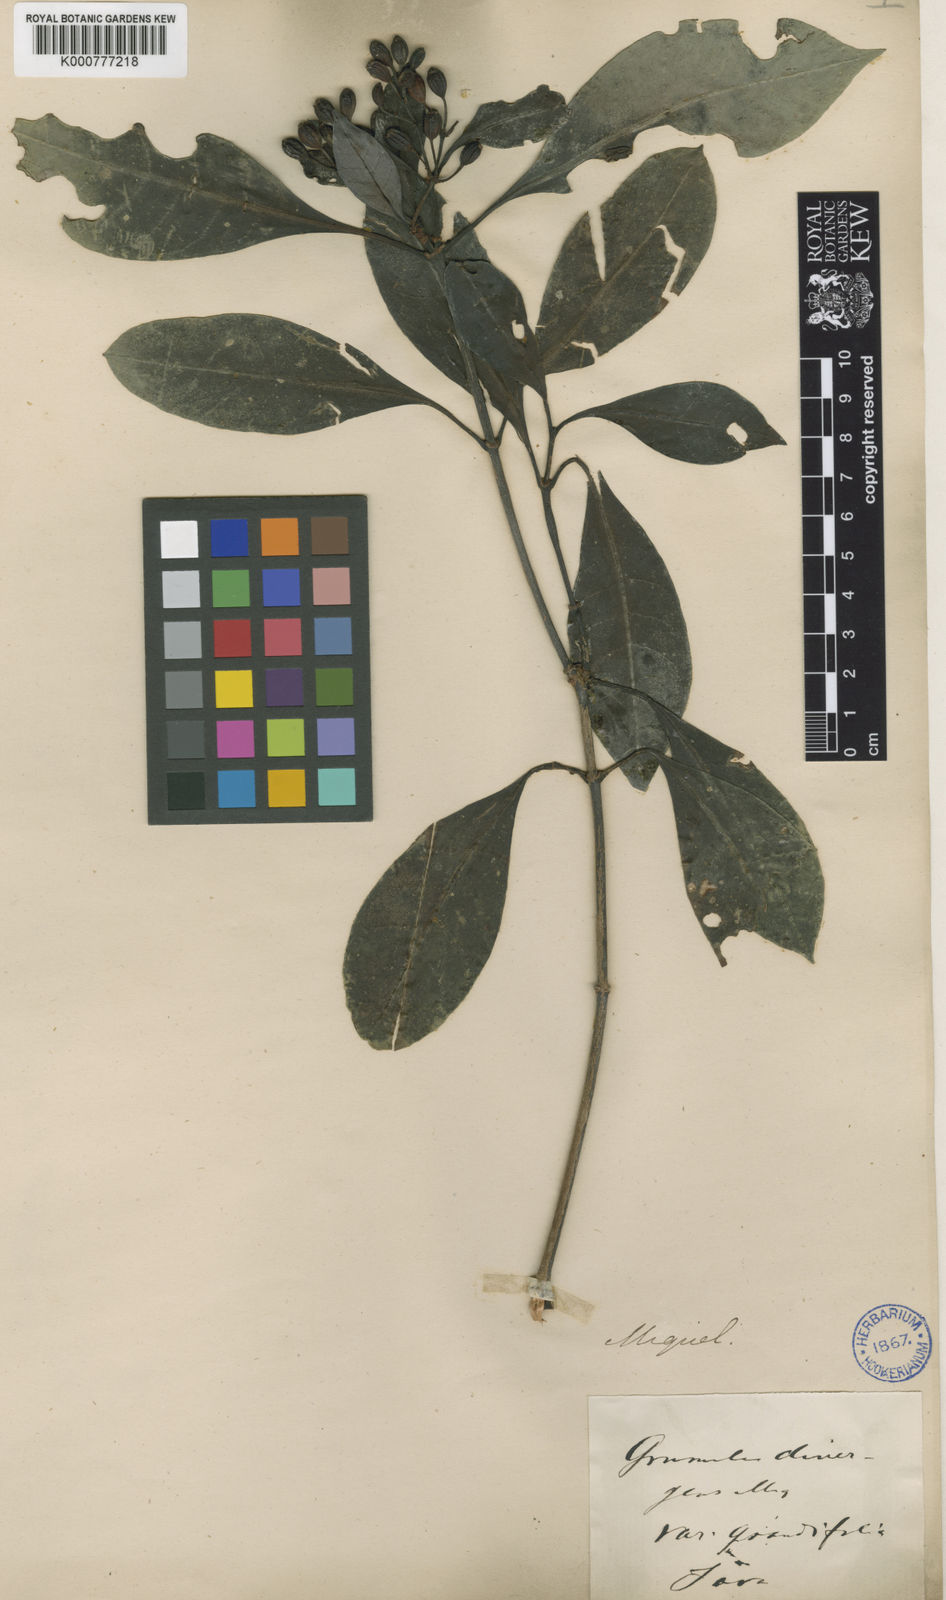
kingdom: Plantae
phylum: Tracheophyta
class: Magnoliopsida
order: Gentianales
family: Rubiaceae
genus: Psychotria
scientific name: Psychotria divergens
